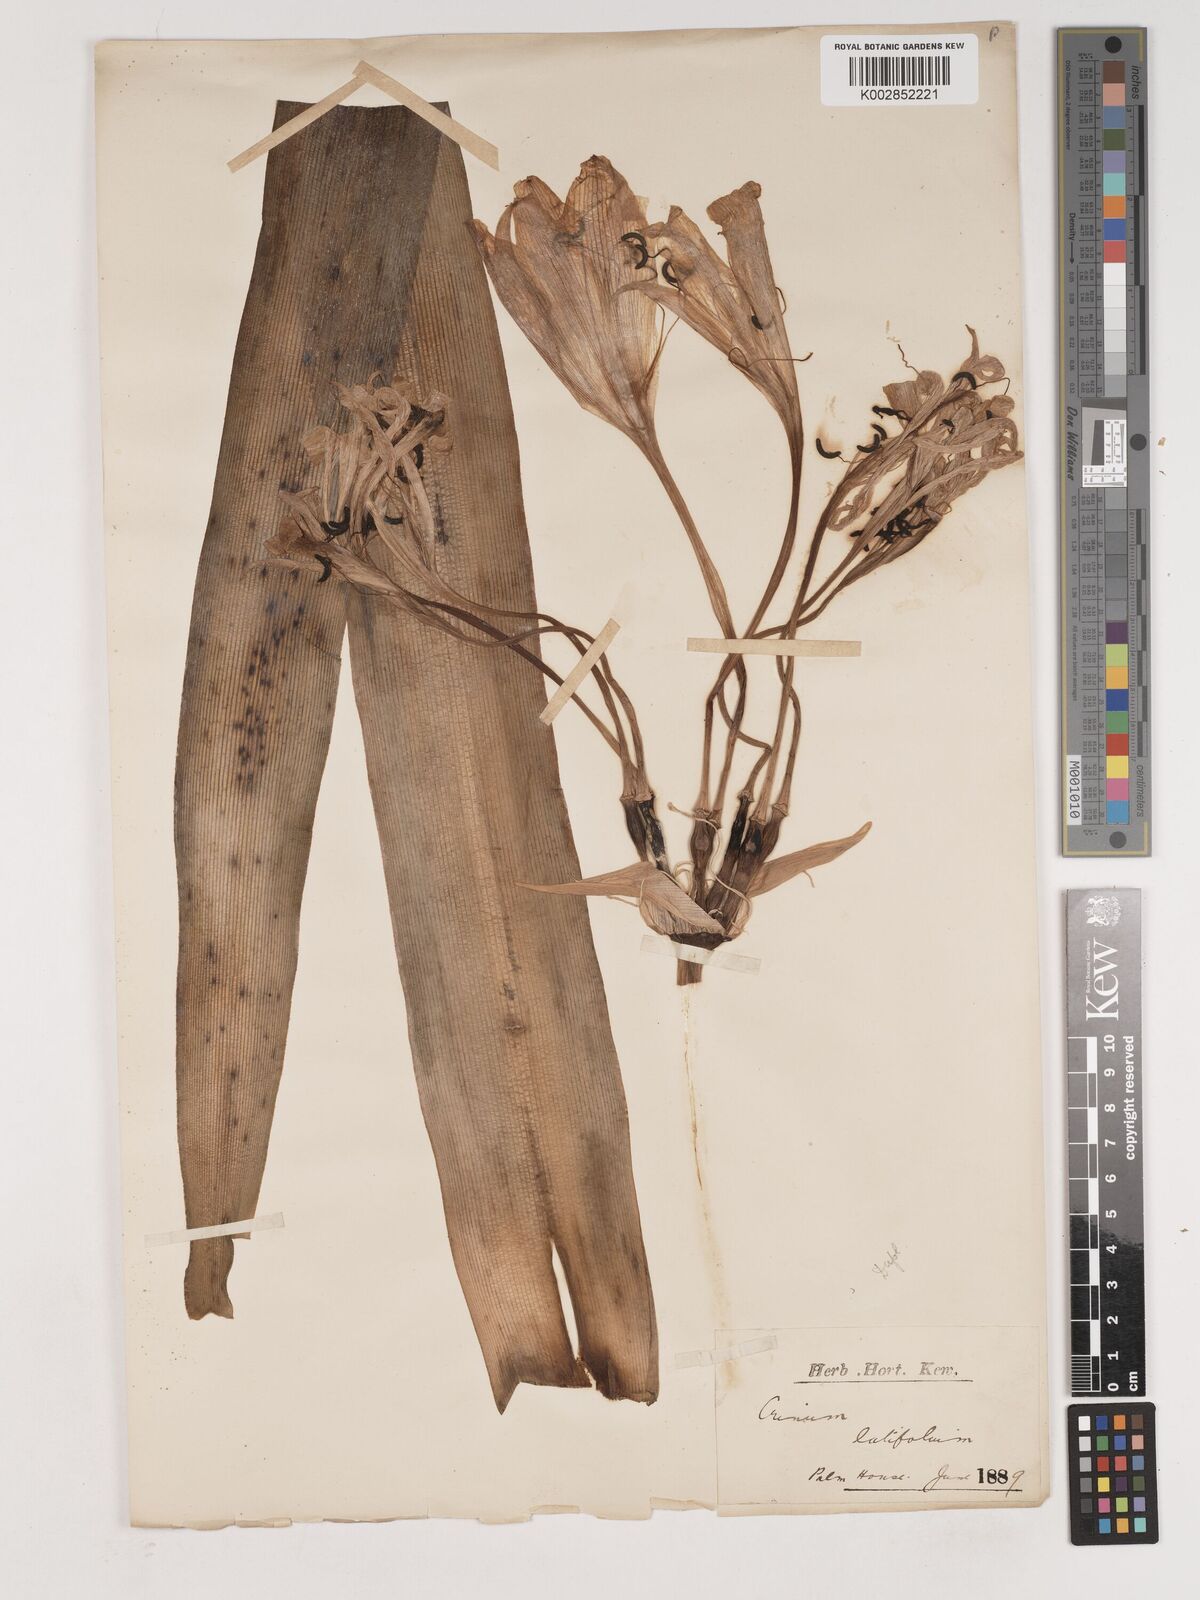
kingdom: Plantae
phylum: Tracheophyta
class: Liliopsida
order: Asparagales
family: Amaryllidaceae
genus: Crinum
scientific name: Crinum macowanii
